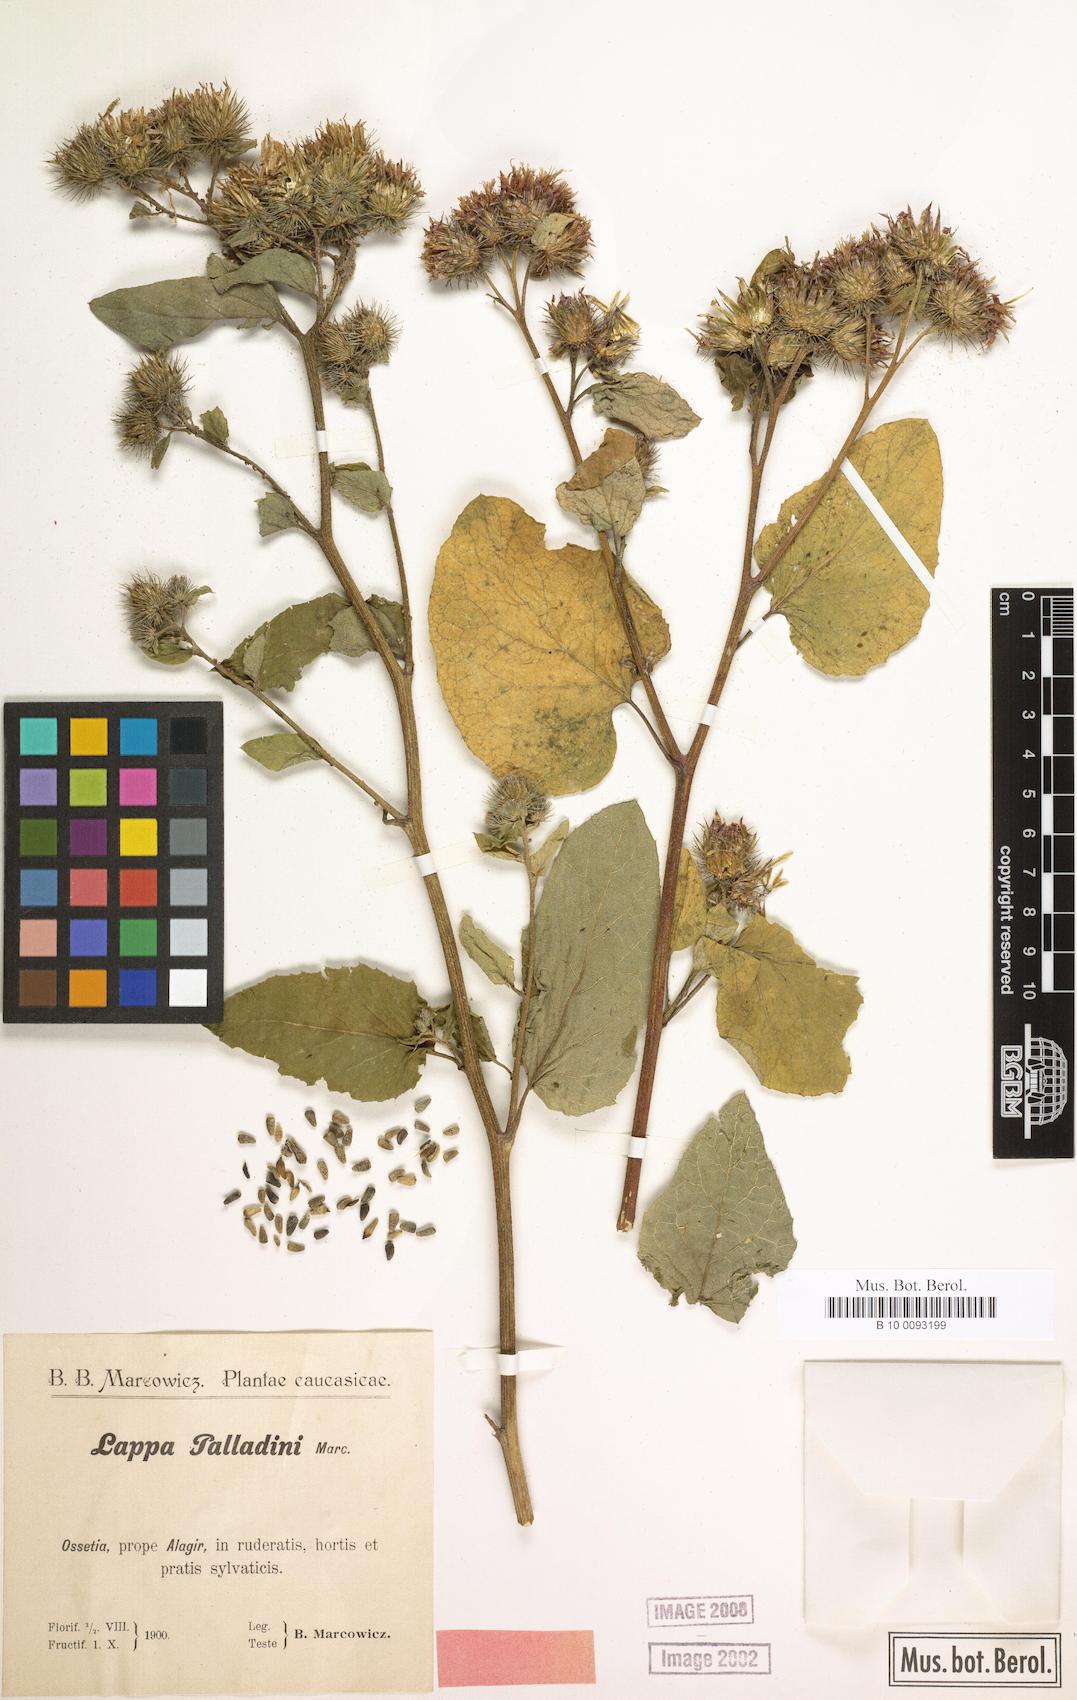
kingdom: Plantae
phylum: Tracheophyta
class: Magnoliopsida
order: Asterales
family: Asteraceae
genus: Arctium
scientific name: Arctium palladini
